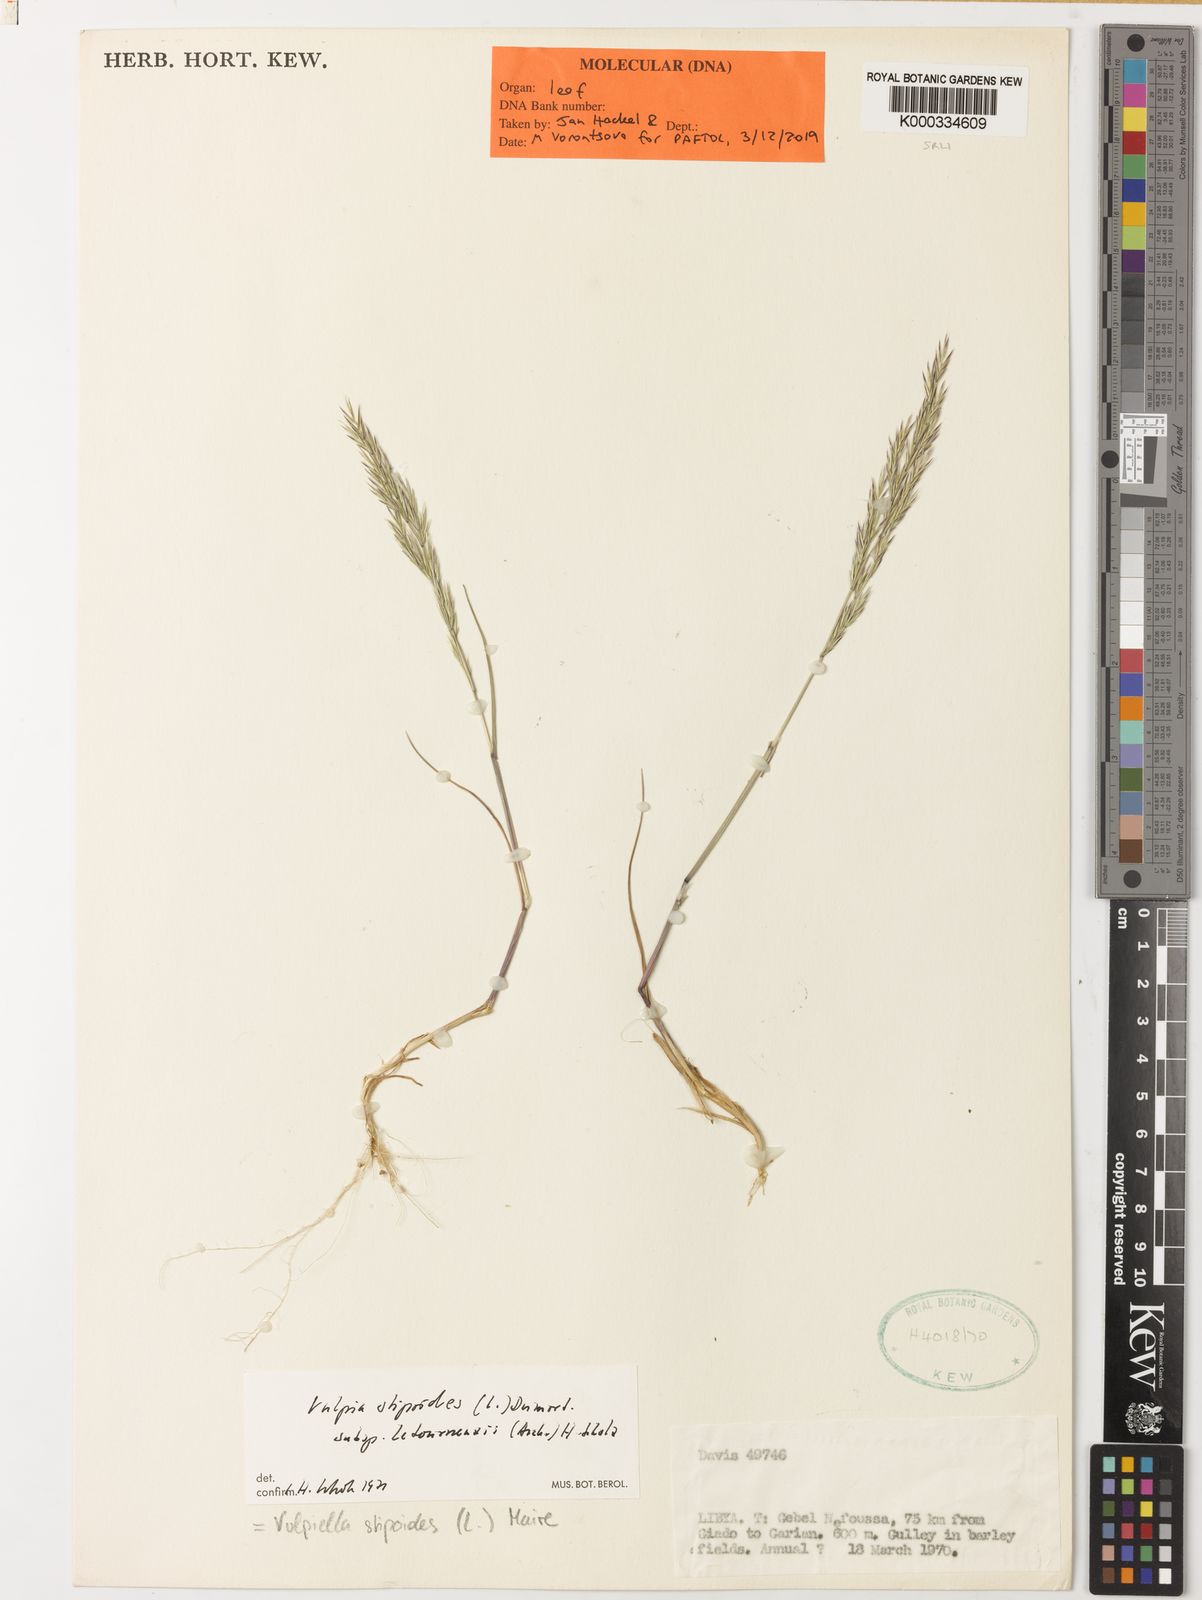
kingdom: Plantae
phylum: Tracheophyta
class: Liliopsida
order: Poales
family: Poaceae
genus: Vulpiella
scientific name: Vulpiella stipoides
